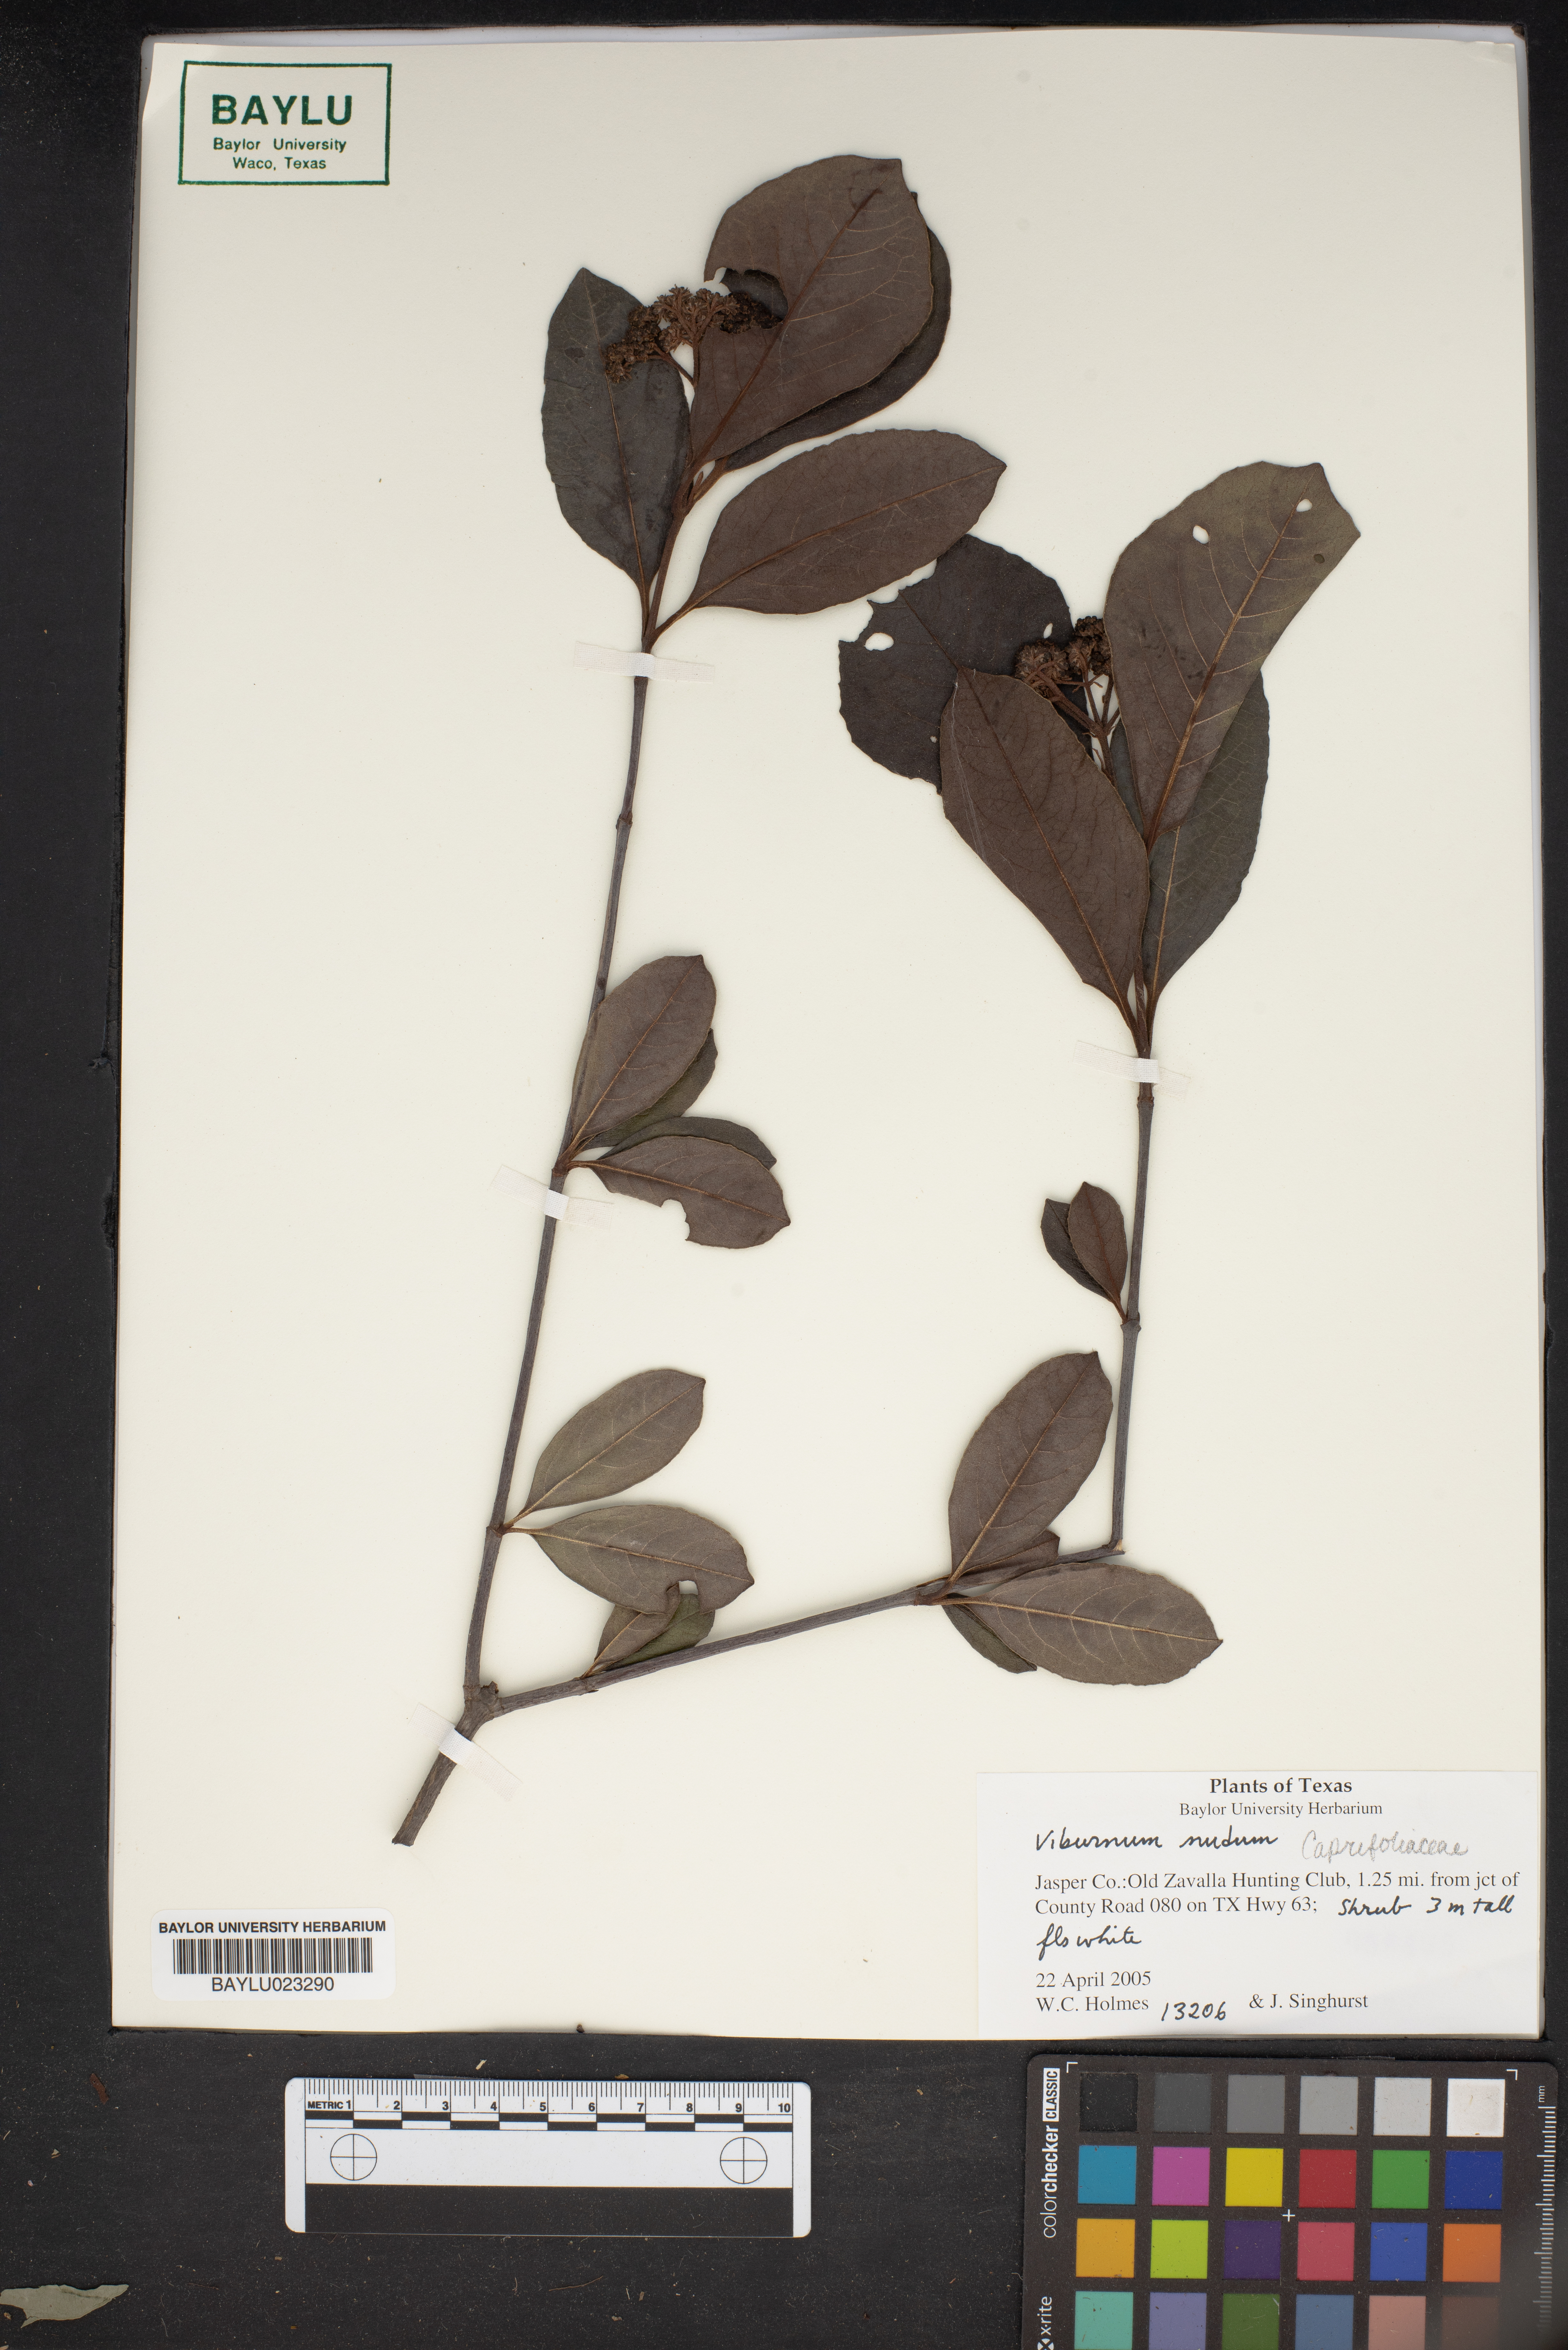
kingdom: Plantae
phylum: Tracheophyta
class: Magnoliopsida
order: Dipsacales
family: Viburnaceae
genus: Viburnum
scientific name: Viburnum nudum
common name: Possum haw
